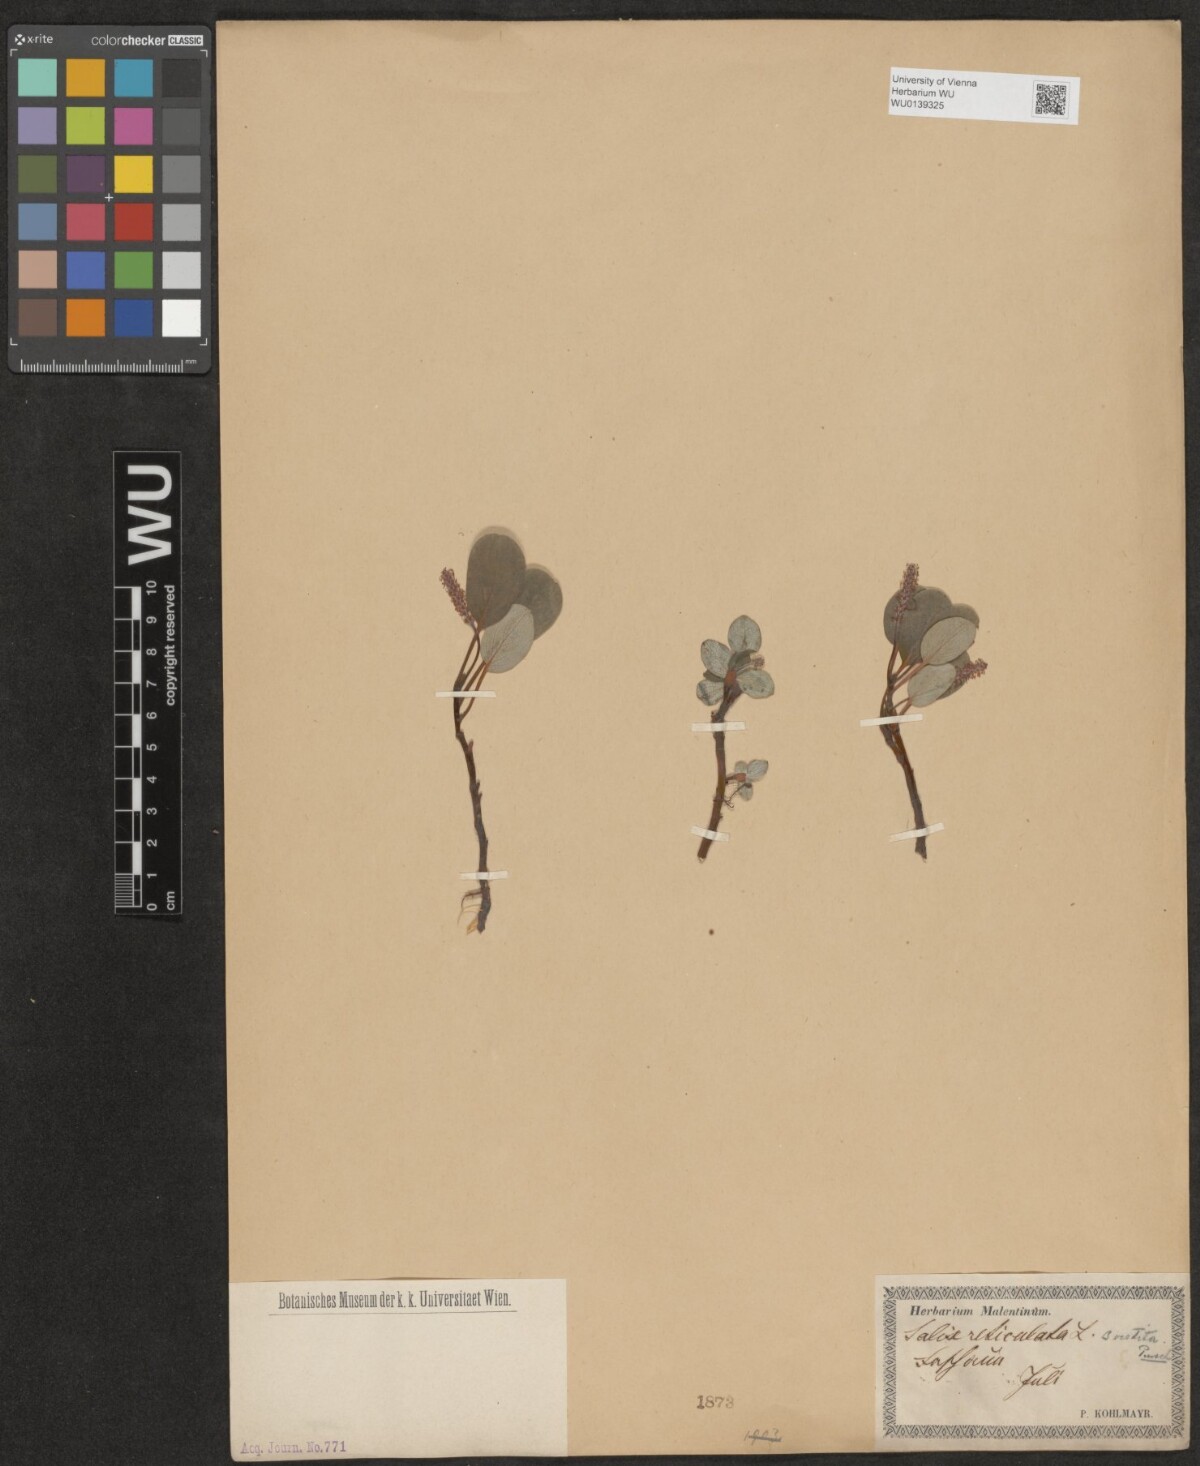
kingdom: Plantae
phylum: Tracheophyta
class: Magnoliopsida
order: Malpighiales
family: Salicaceae
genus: Salix
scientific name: Salix reticulata
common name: Net-leaved willow
